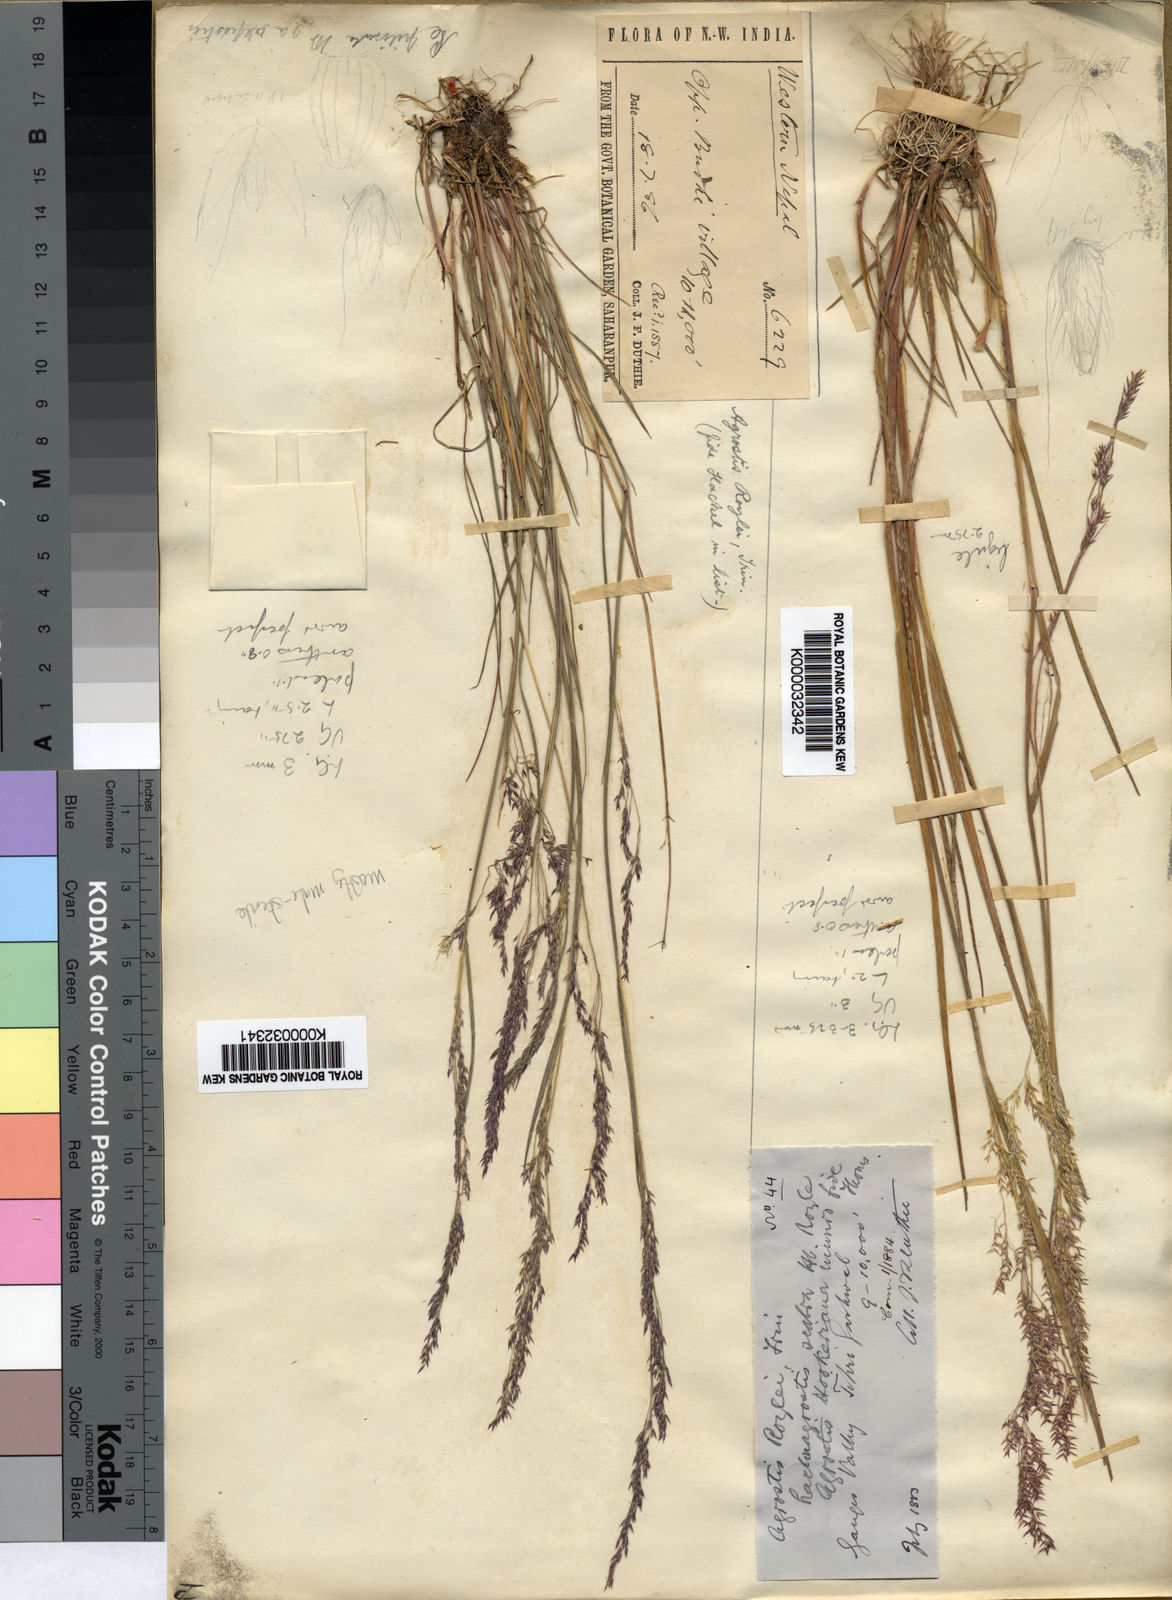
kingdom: Plantae
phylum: Tracheophyta
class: Liliopsida
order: Poales
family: Poaceae
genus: Agrostis
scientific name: Agrostis pilosula
